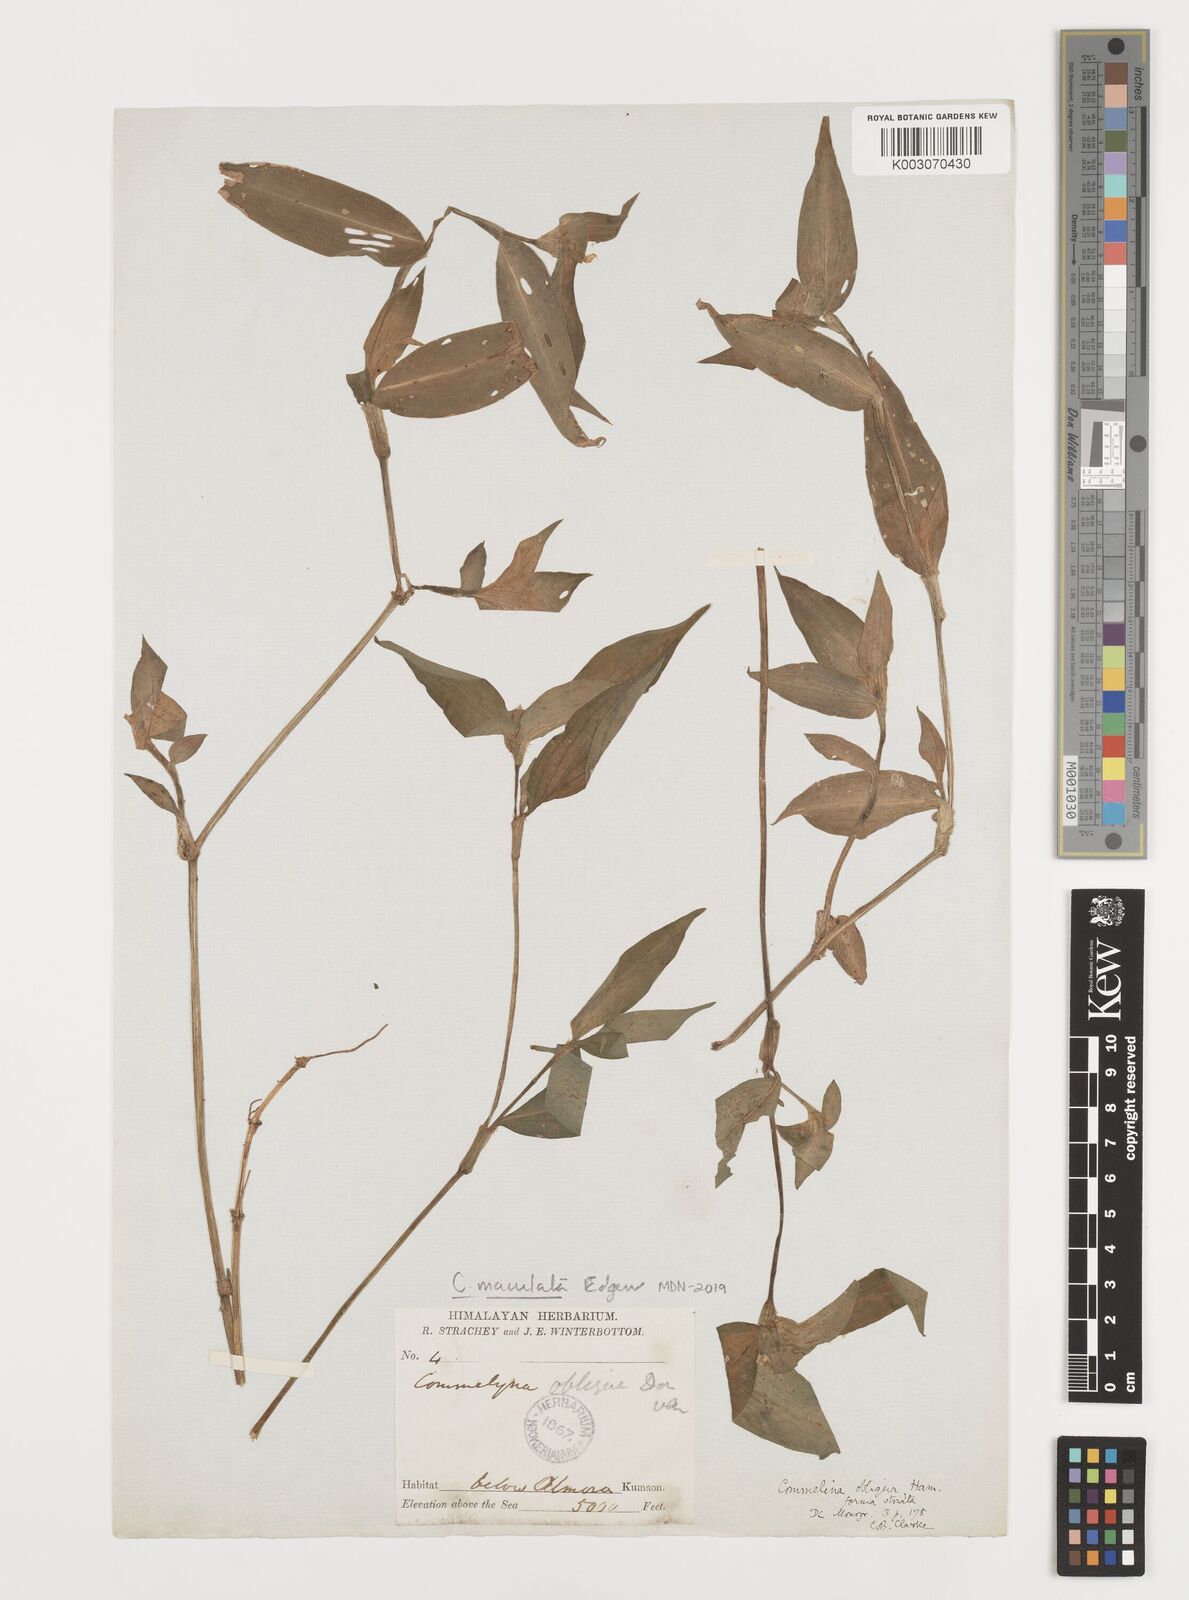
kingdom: Plantae
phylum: Tracheophyta
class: Liliopsida
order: Commelinales
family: Commelinaceae
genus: Commelina
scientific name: Commelina maculata
